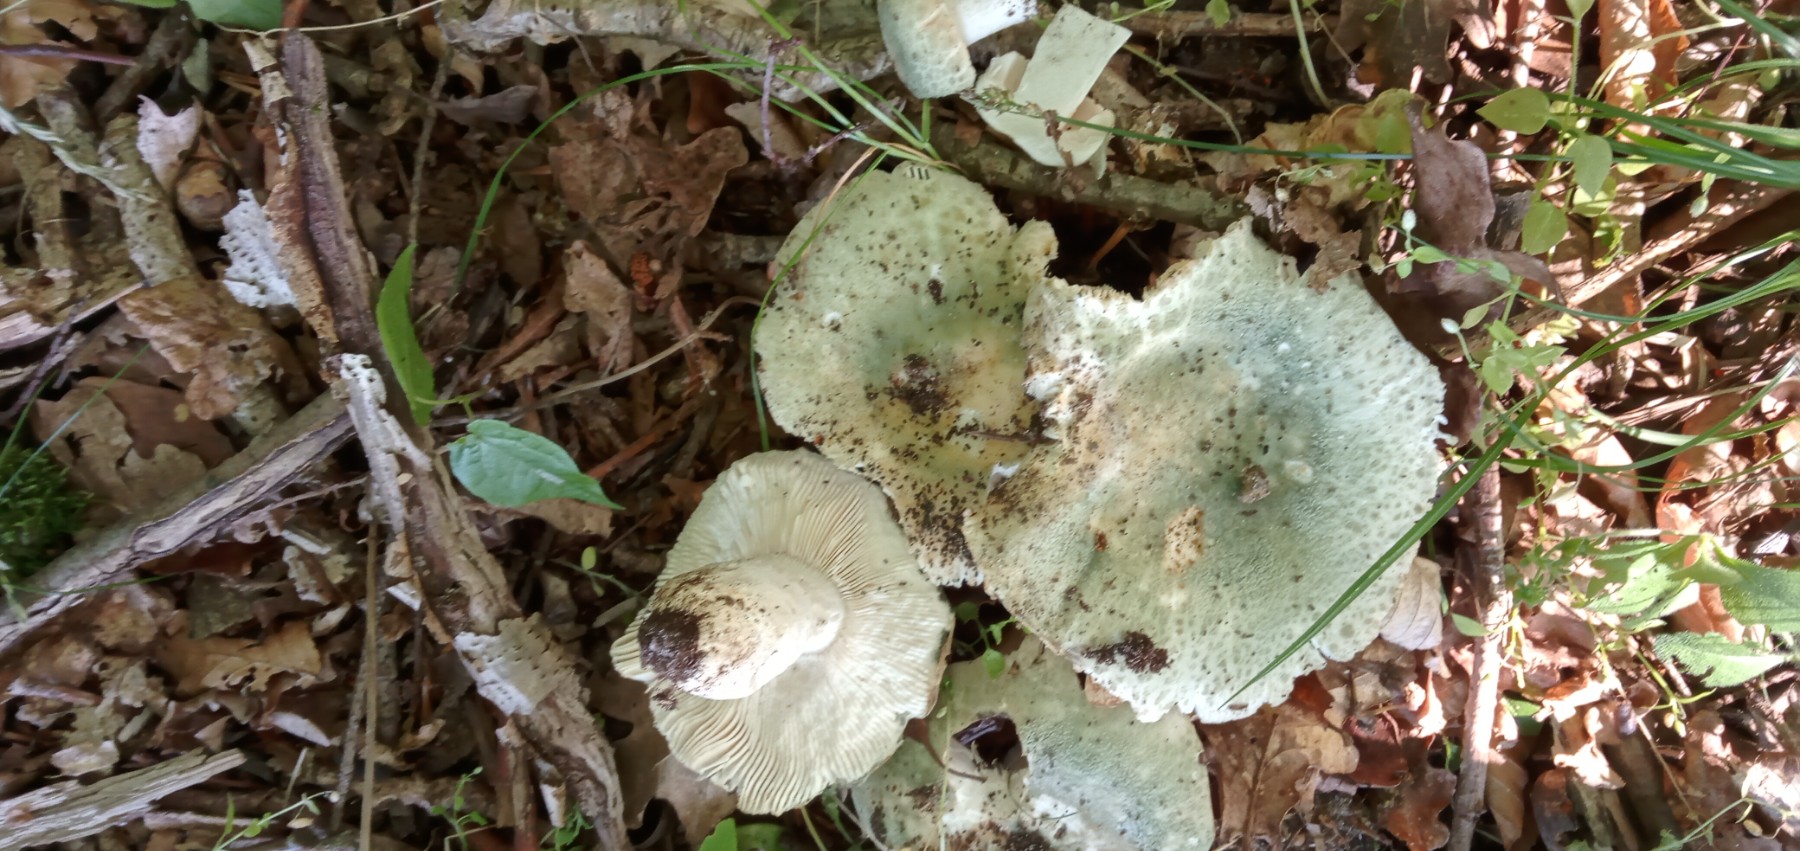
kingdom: Fungi
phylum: Basidiomycota
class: Agaricomycetes
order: Russulales
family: Russulaceae
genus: Russula
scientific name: Russula virescens
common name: spanskgrøn skørhat
